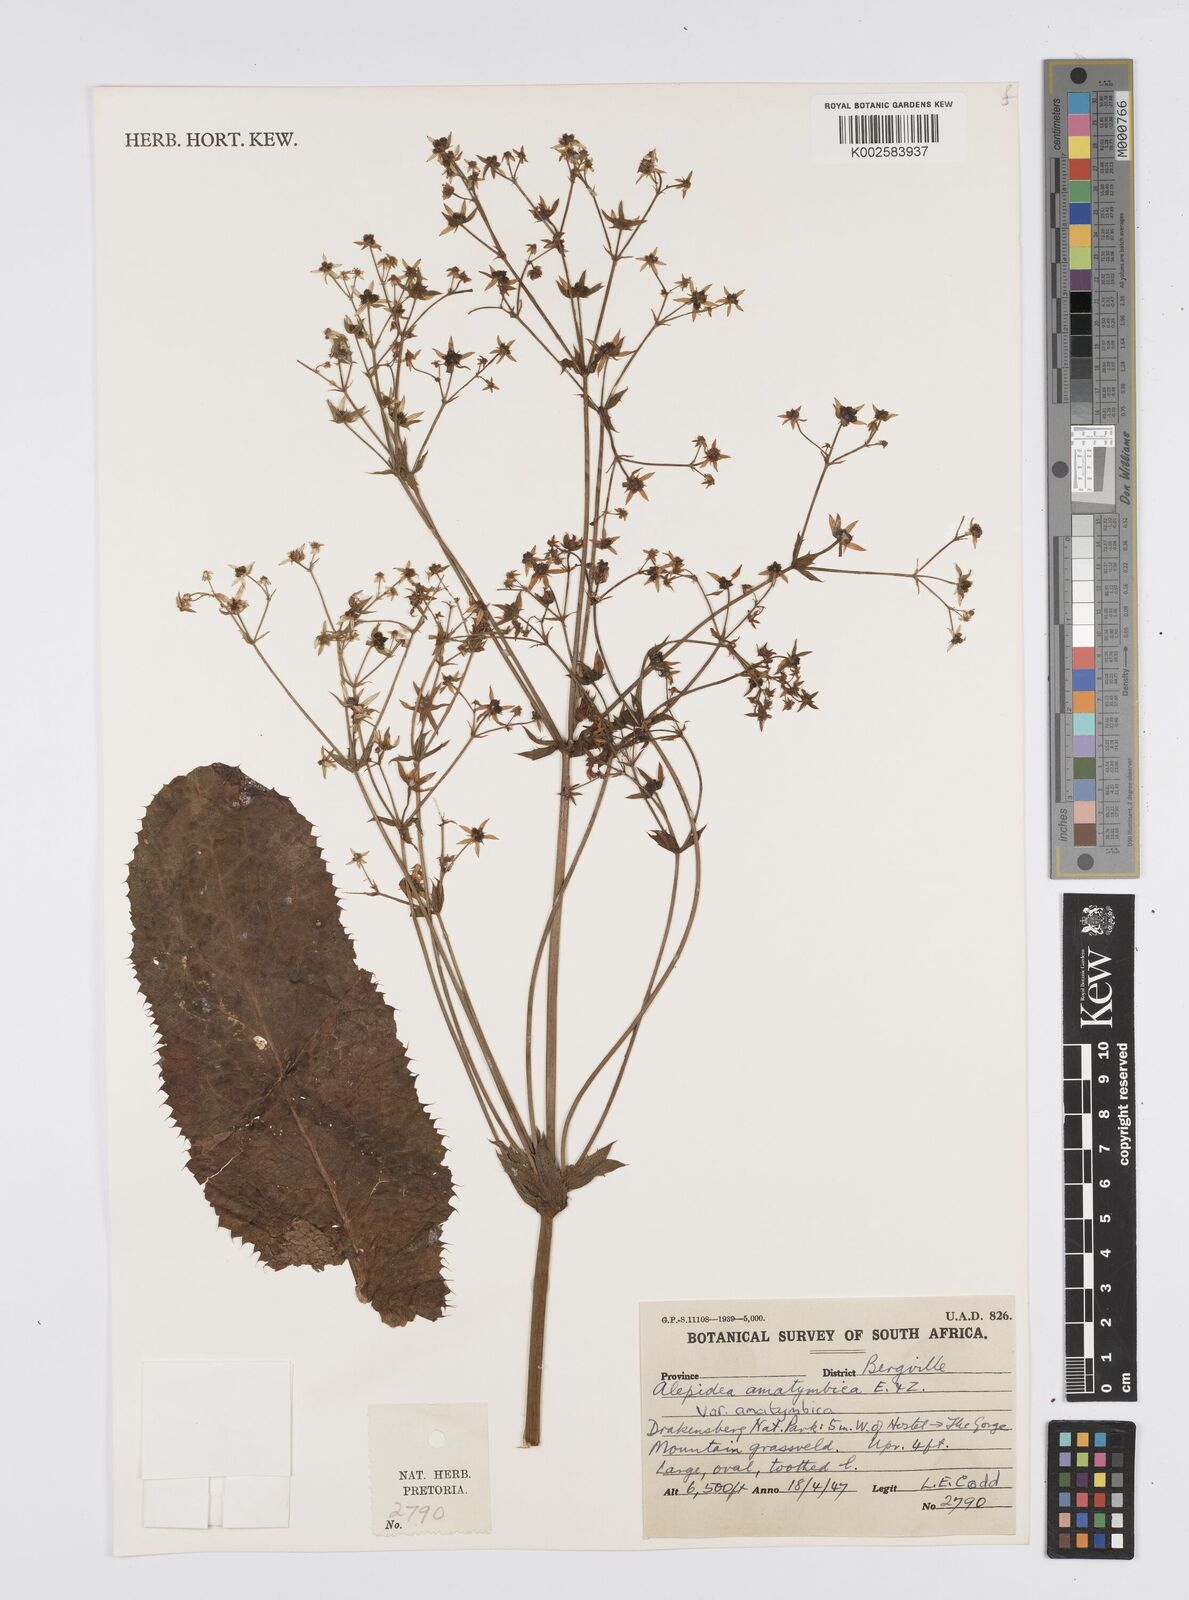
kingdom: Plantae
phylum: Tracheophyta
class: Magnoliopsida
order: Apiales
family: Apiaceae
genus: Alepidea
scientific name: Alepidea amatymbica
